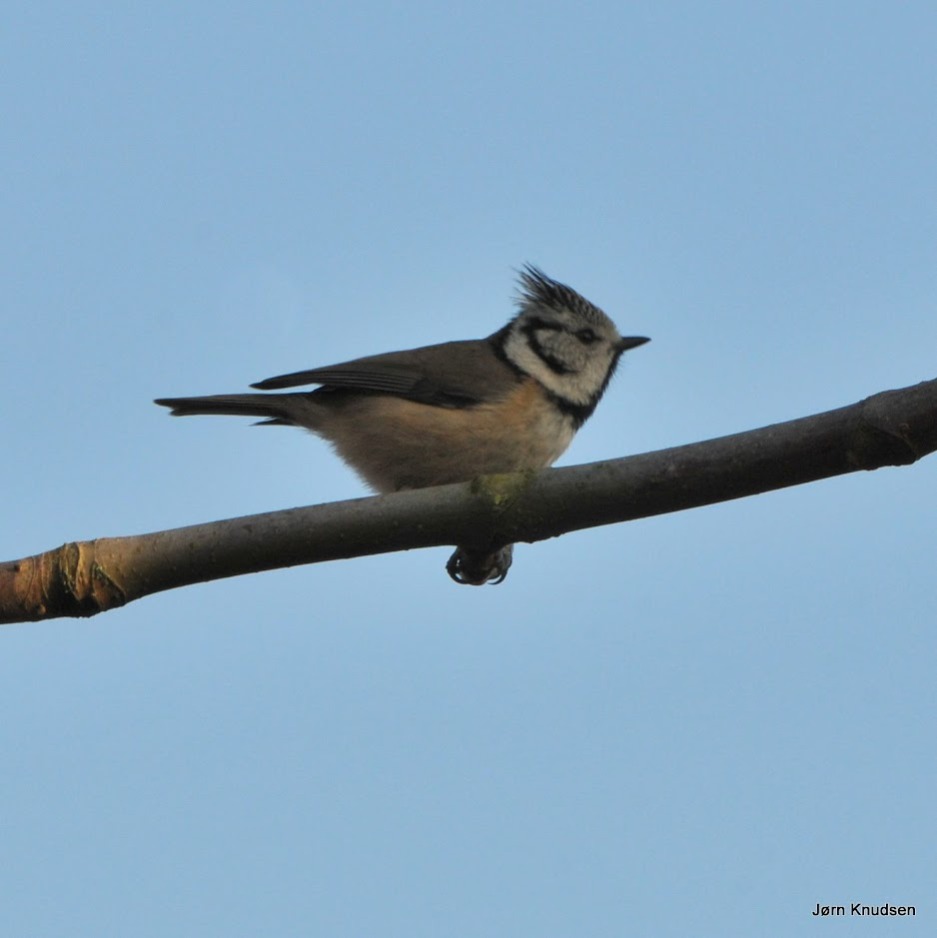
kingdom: Animalia
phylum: Chordata
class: Aves
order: Passeriformes
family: Paridae
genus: Lophophanes
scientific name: Lophophanes cristatus
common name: Topmejse
